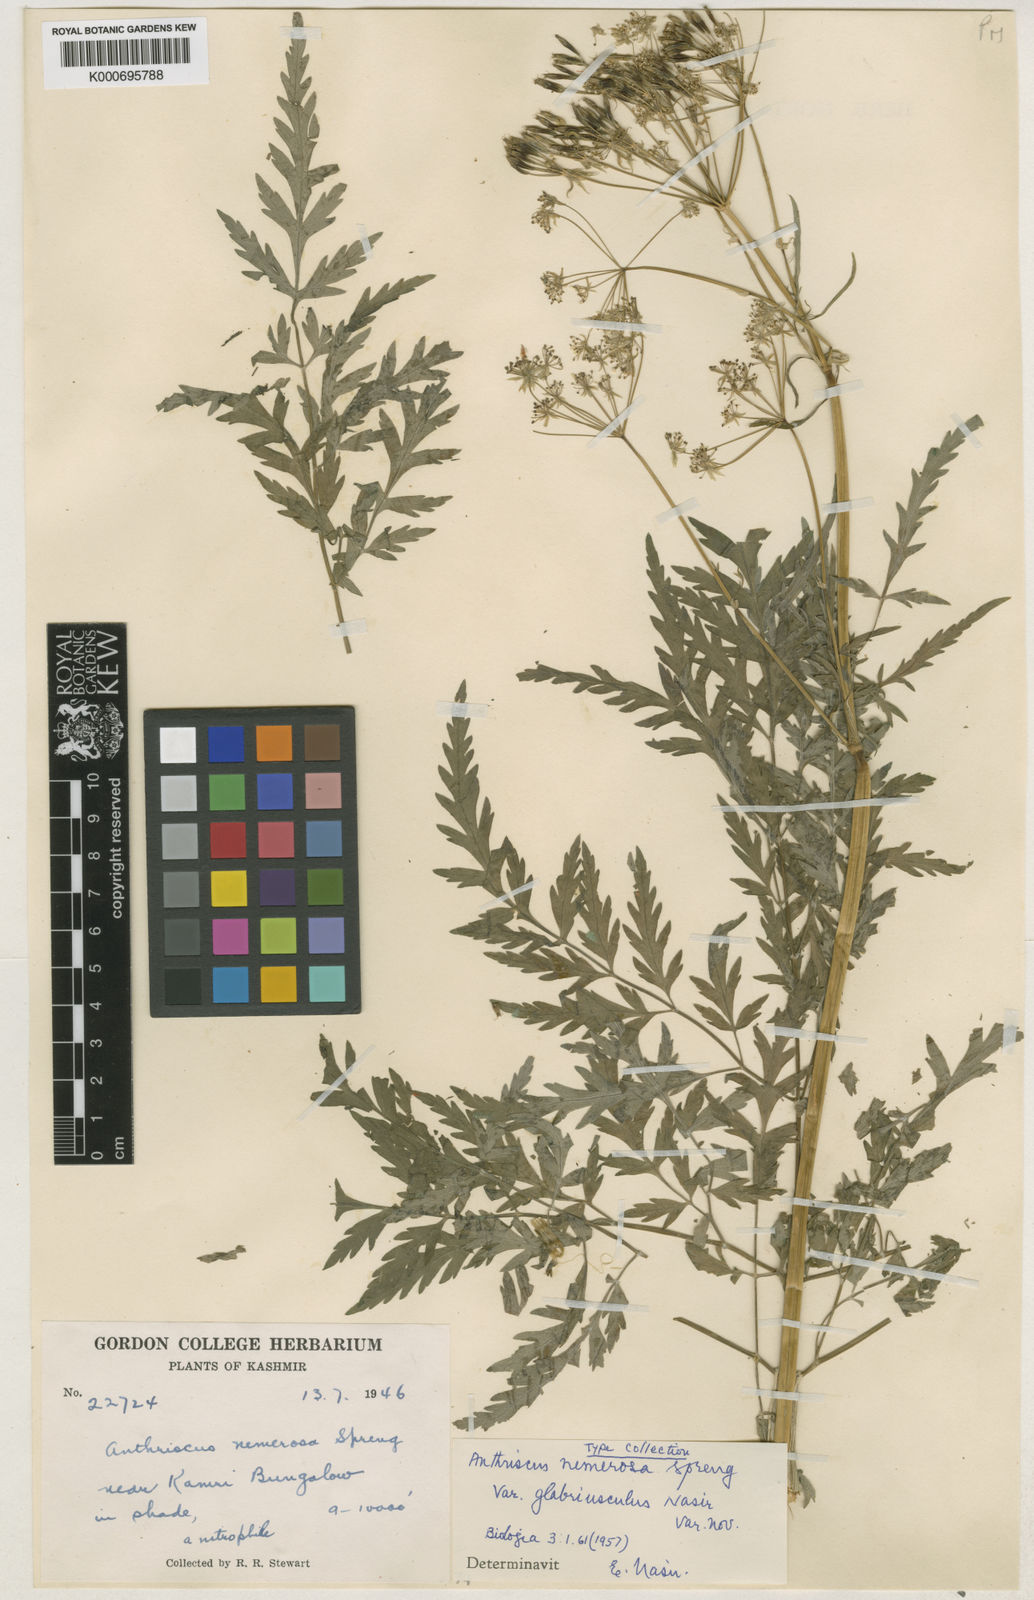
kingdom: Plantae
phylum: Tracheophyta
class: Magnoliopsida
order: Apiales
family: Apiaceae
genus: Anthriscus
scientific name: Anthriscus sylvestris
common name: Cow parsley
